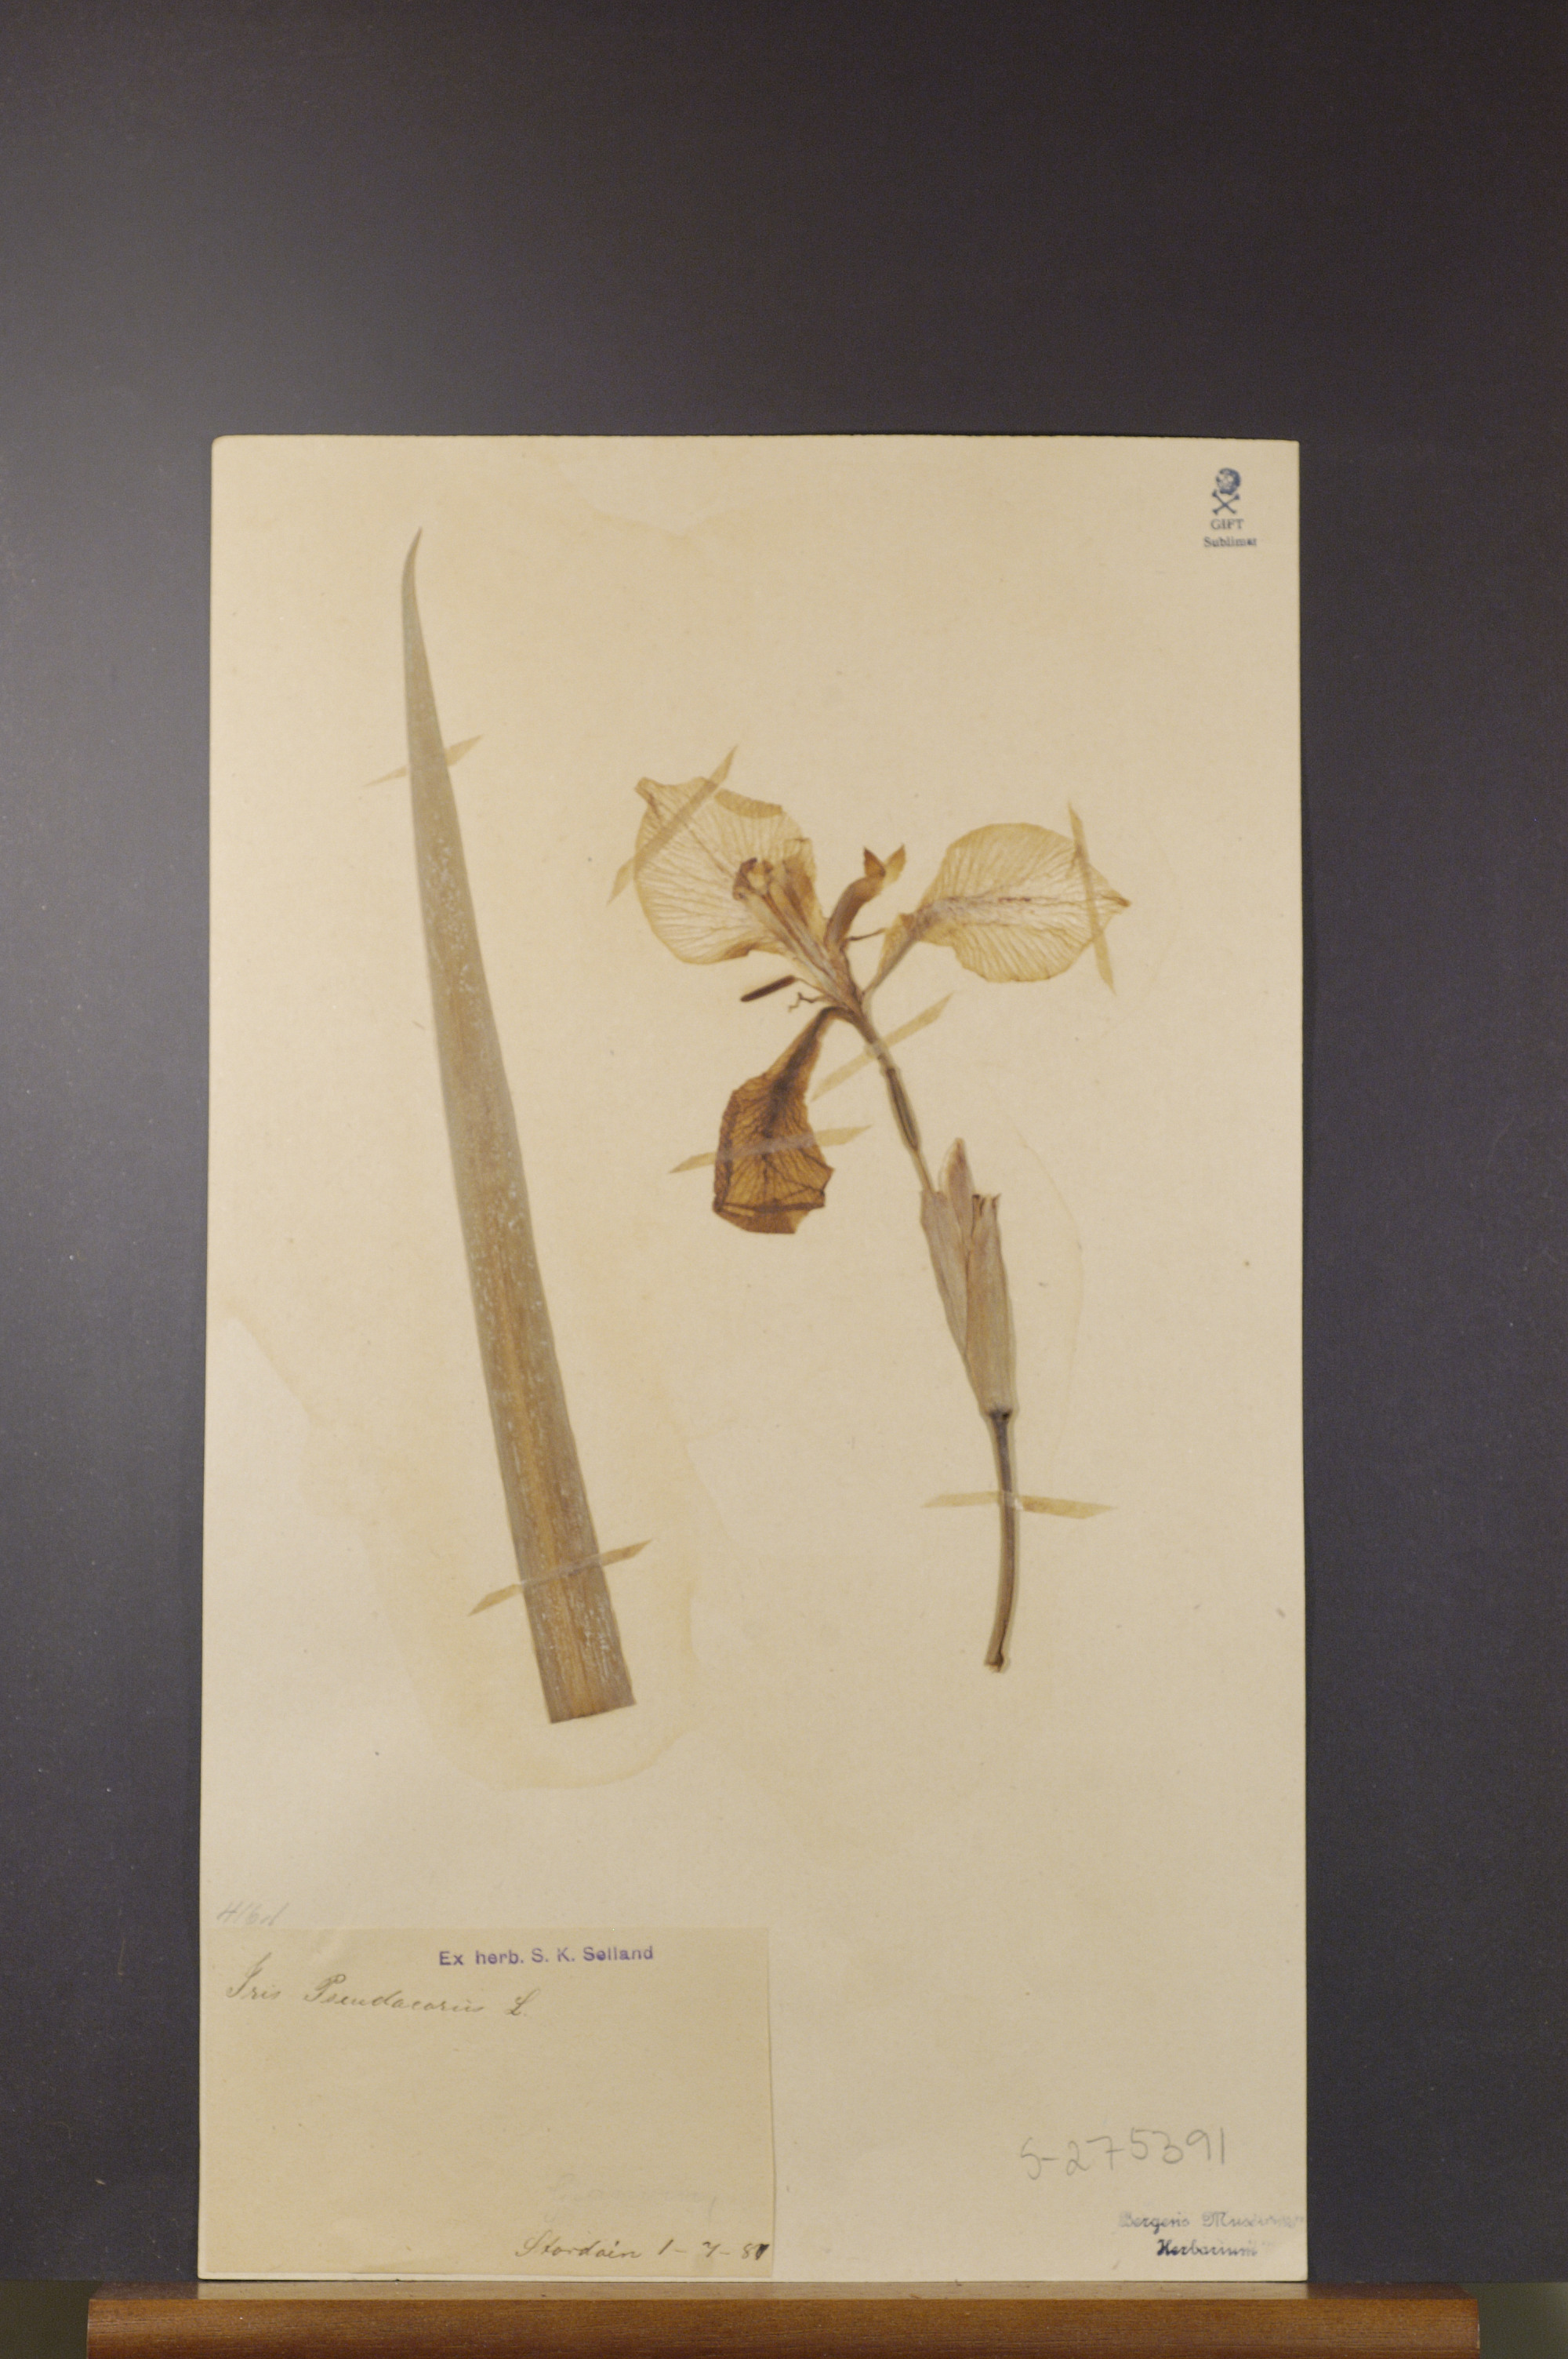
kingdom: Plantae
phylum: Tracheophyta
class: Liliopsida
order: Asparagales
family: Iridaceae
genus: Iris
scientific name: Iris pseudacorus
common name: Yellow flag
